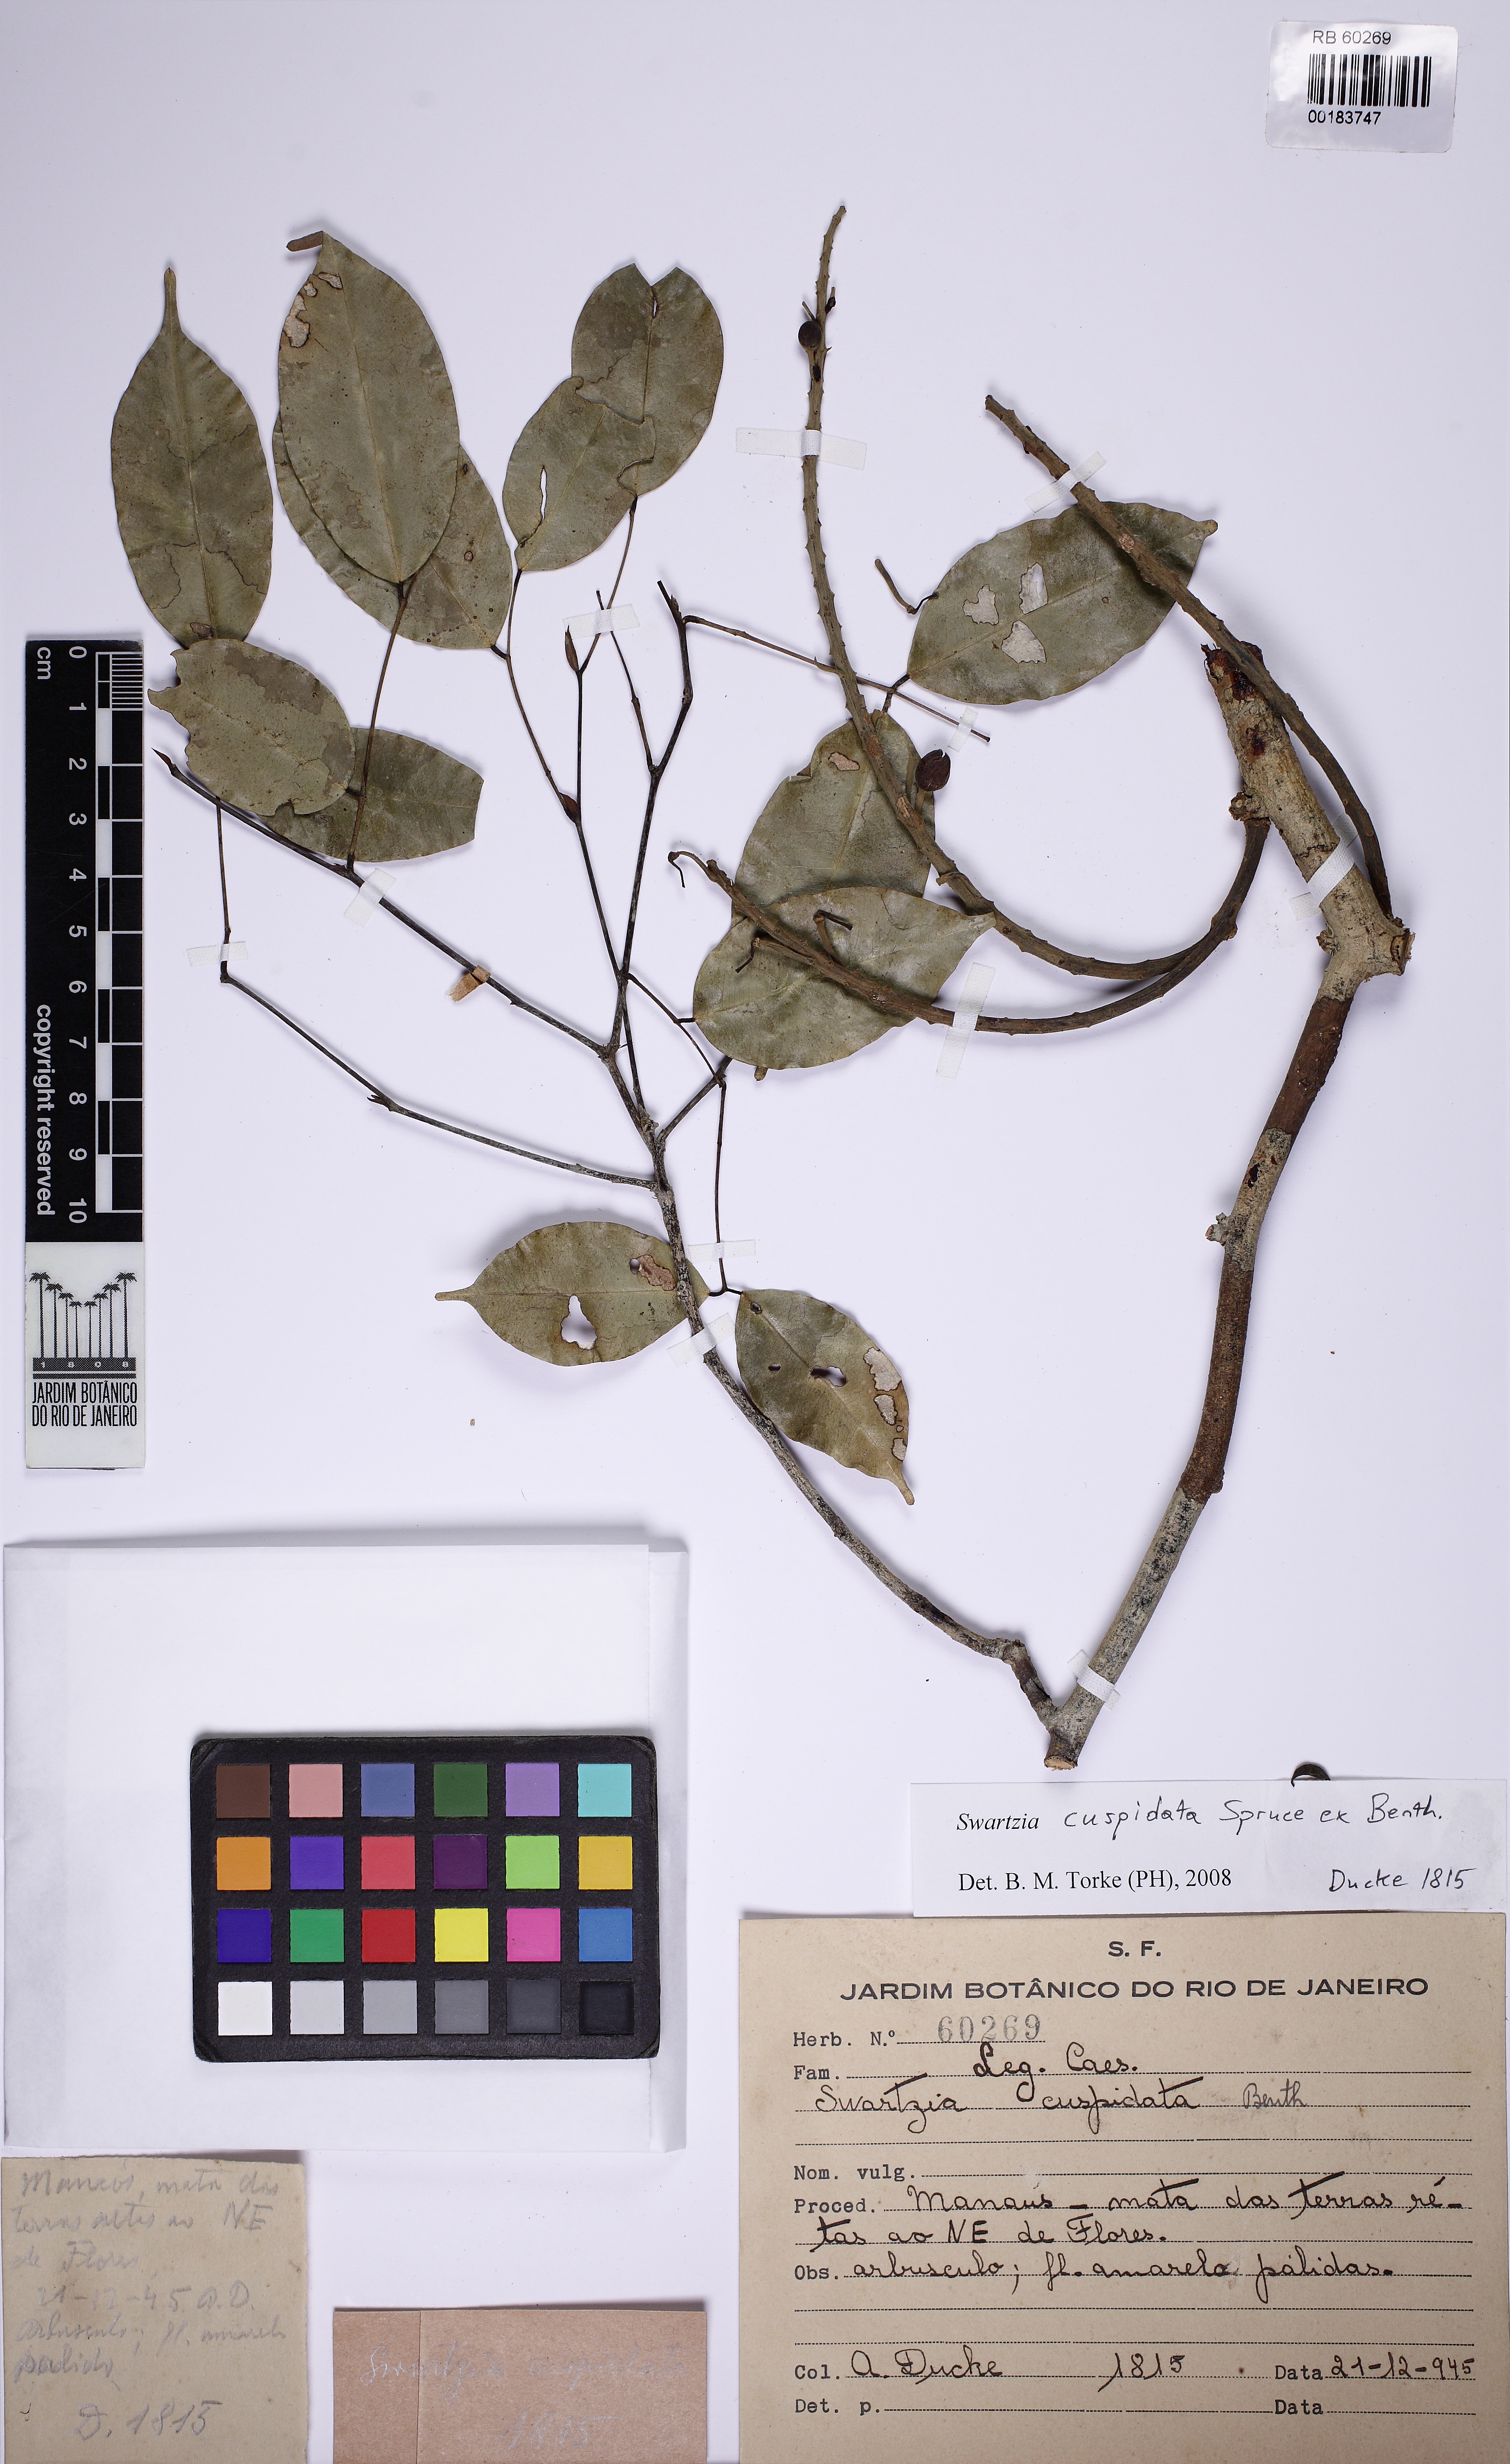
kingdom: Plantae
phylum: Tracheophyta
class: Magnoliopsida
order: Fabales
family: Fabaceae
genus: Swartzia
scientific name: Swartzia cuspidata
